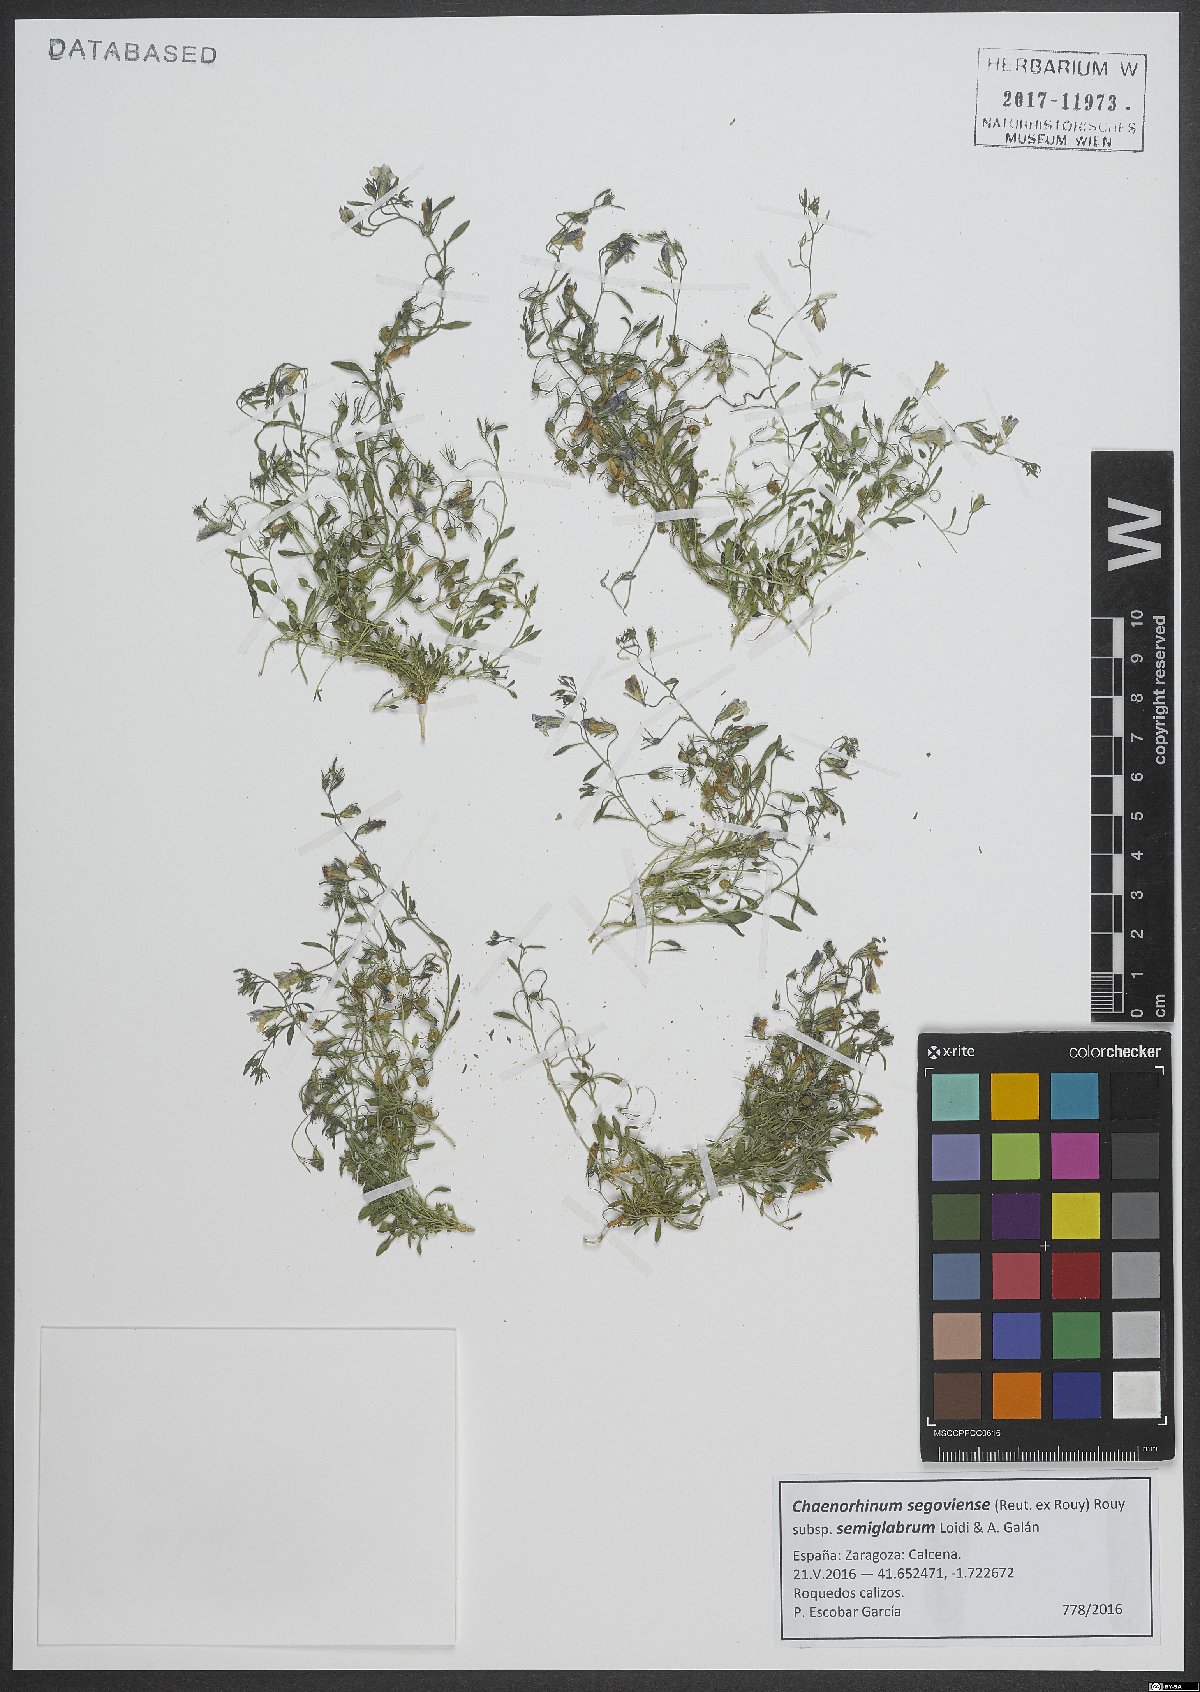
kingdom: Plantae
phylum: Tracheophyta
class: Magnoliopsida
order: Lamiales
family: Plantaginaceae
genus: Chaenorhinum
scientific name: Chaenorhinum segoviense
